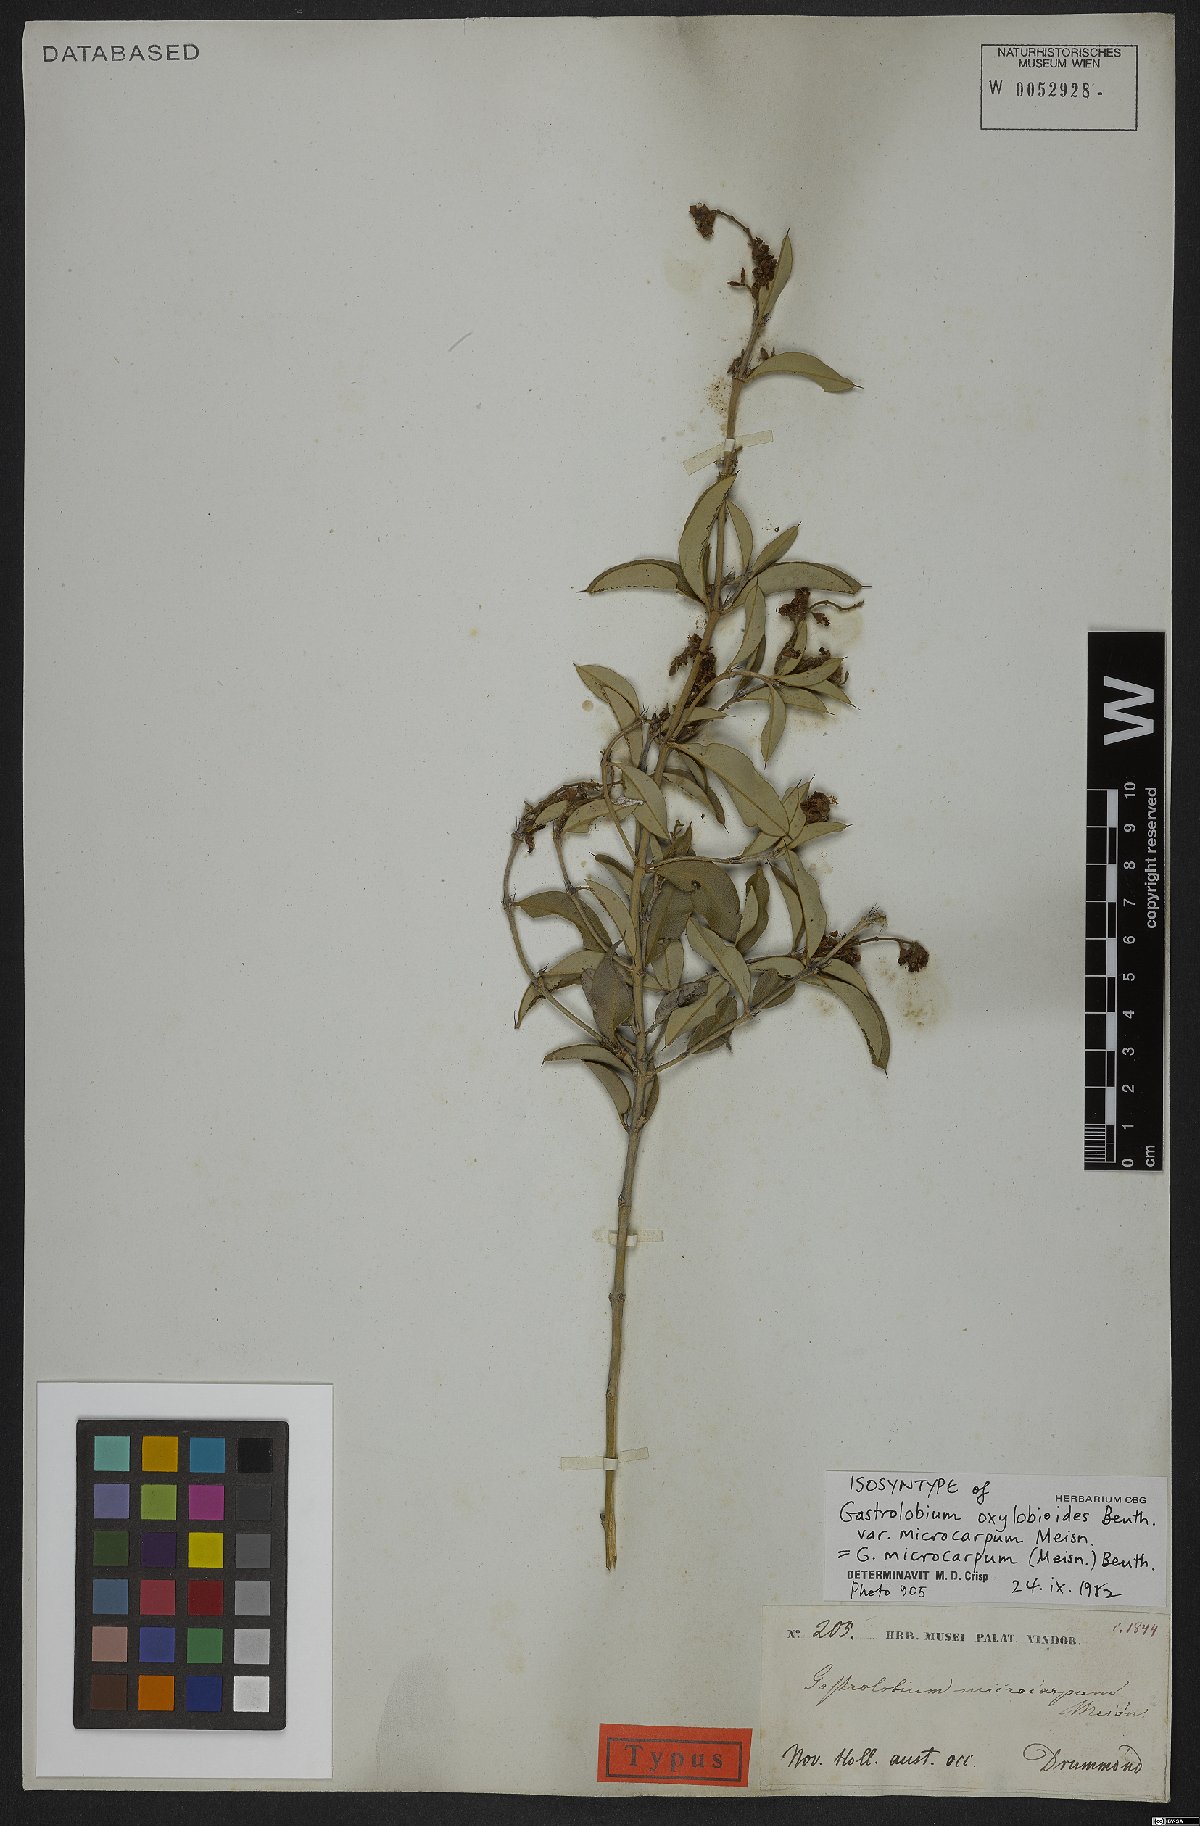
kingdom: Plantae
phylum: Tracheophyta
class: Magnoliopsida
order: Fabales
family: Fabaceae
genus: Gastrolobium
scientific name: Gastrolobium microcarpum
